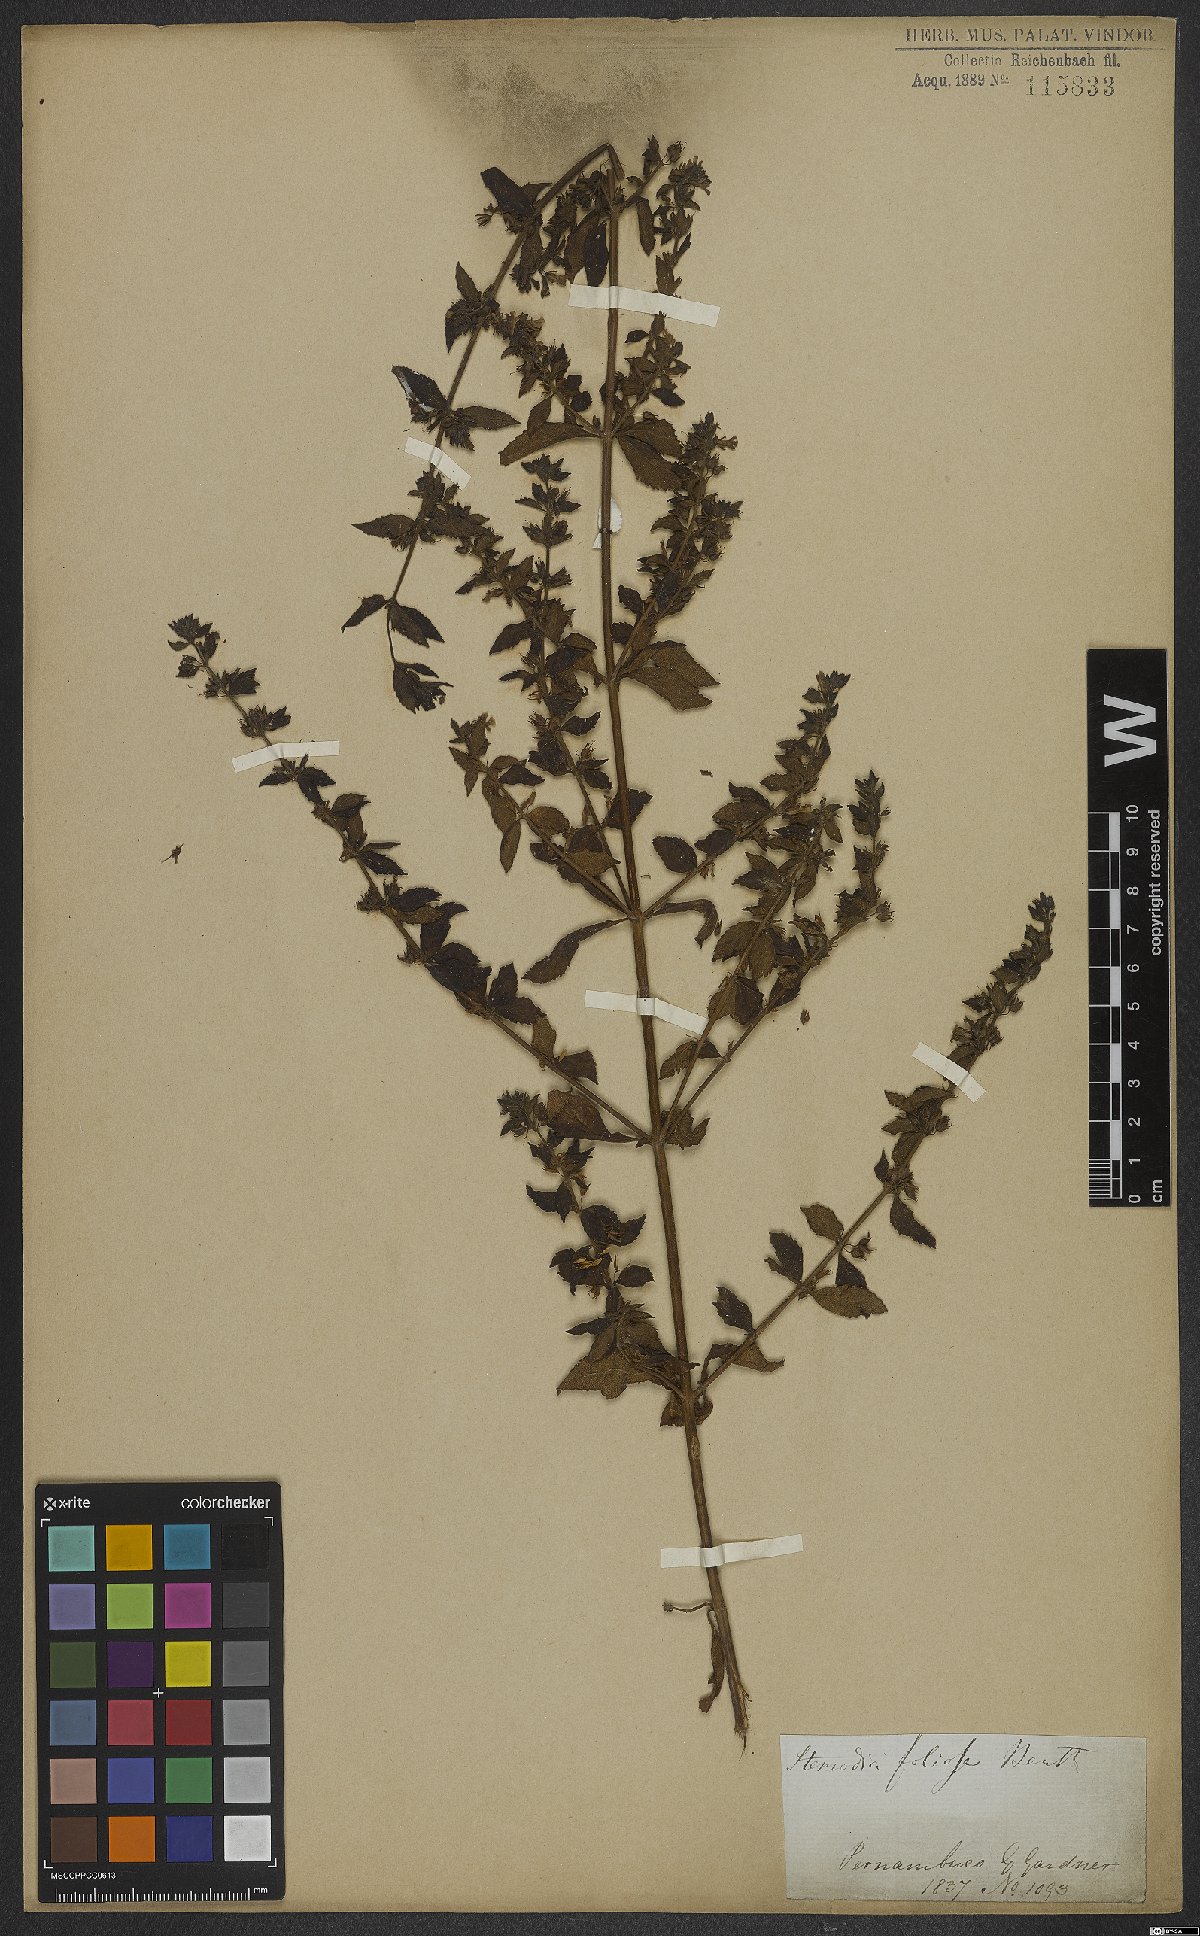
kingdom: Plantae
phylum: Tracheophyta
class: Magnoliopsida
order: Lamiales
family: Plantaginaceae
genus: Stemodia
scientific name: Stemodia foliosa
